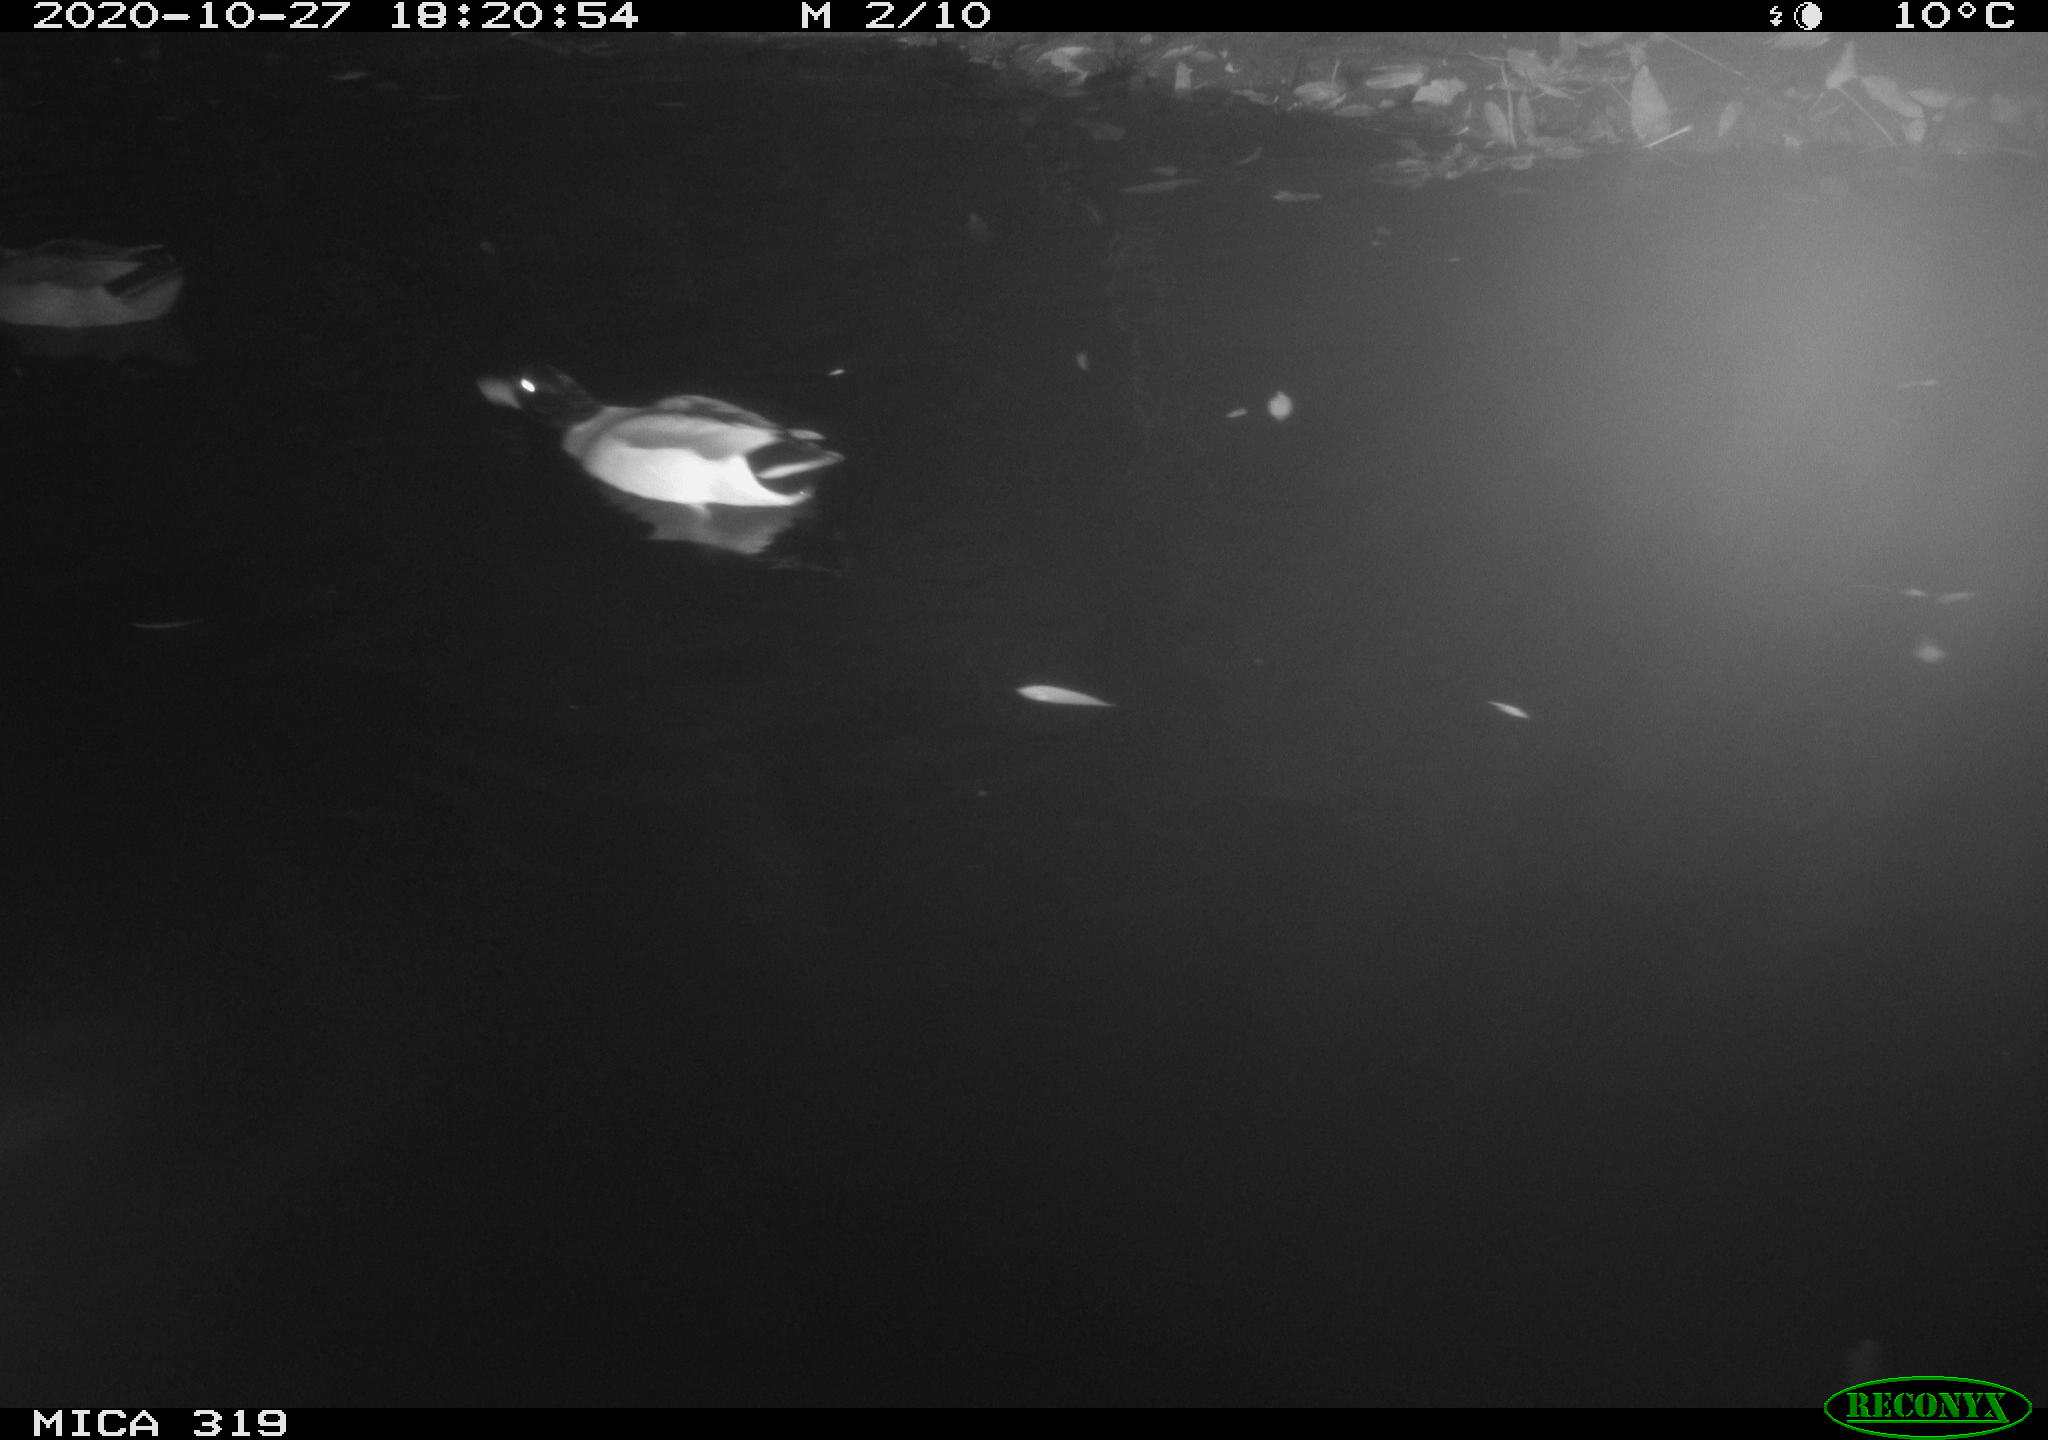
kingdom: Animalia
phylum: Chordata
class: Aves
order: Anseriformes
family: Anatidae
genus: Anas
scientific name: Anas platyrhynchos
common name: Mallard
